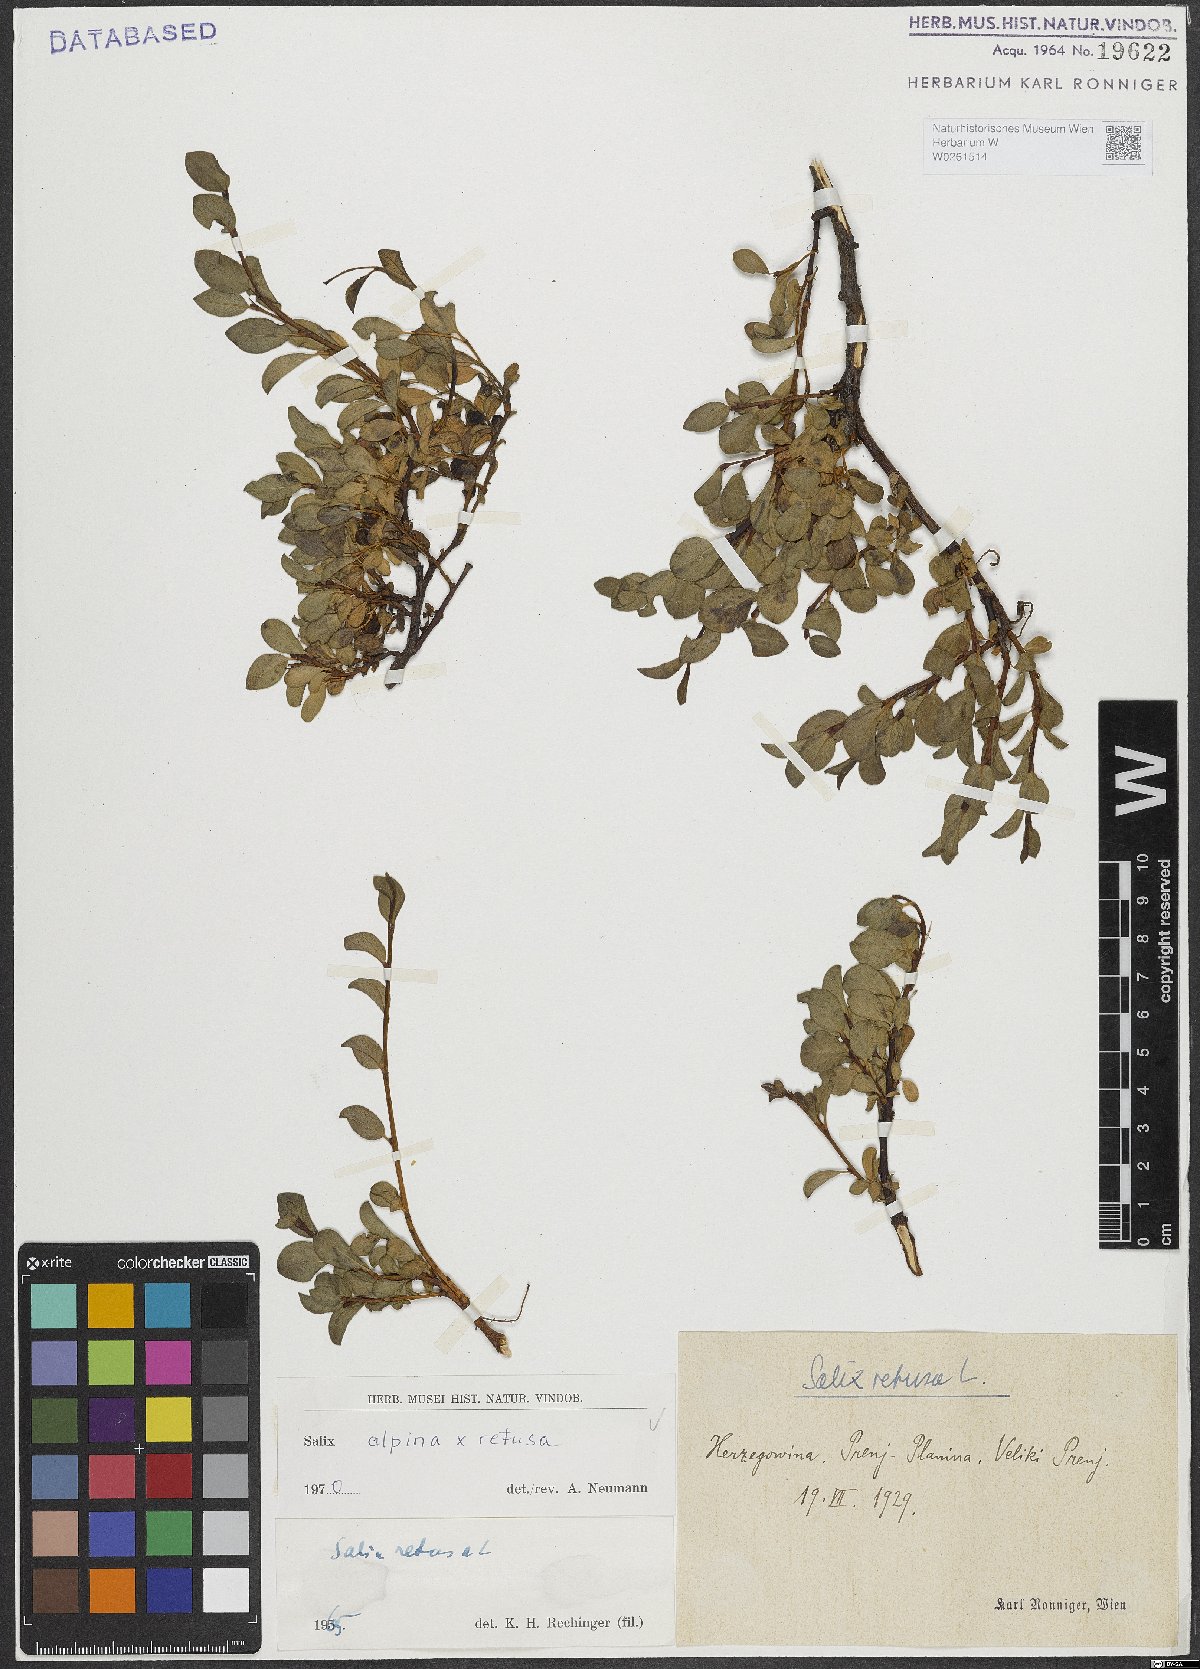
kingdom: Plantae
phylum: Tracheophyta
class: Magnoliopsida
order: Malpighiales
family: Salicaceae
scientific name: Salicaceae
